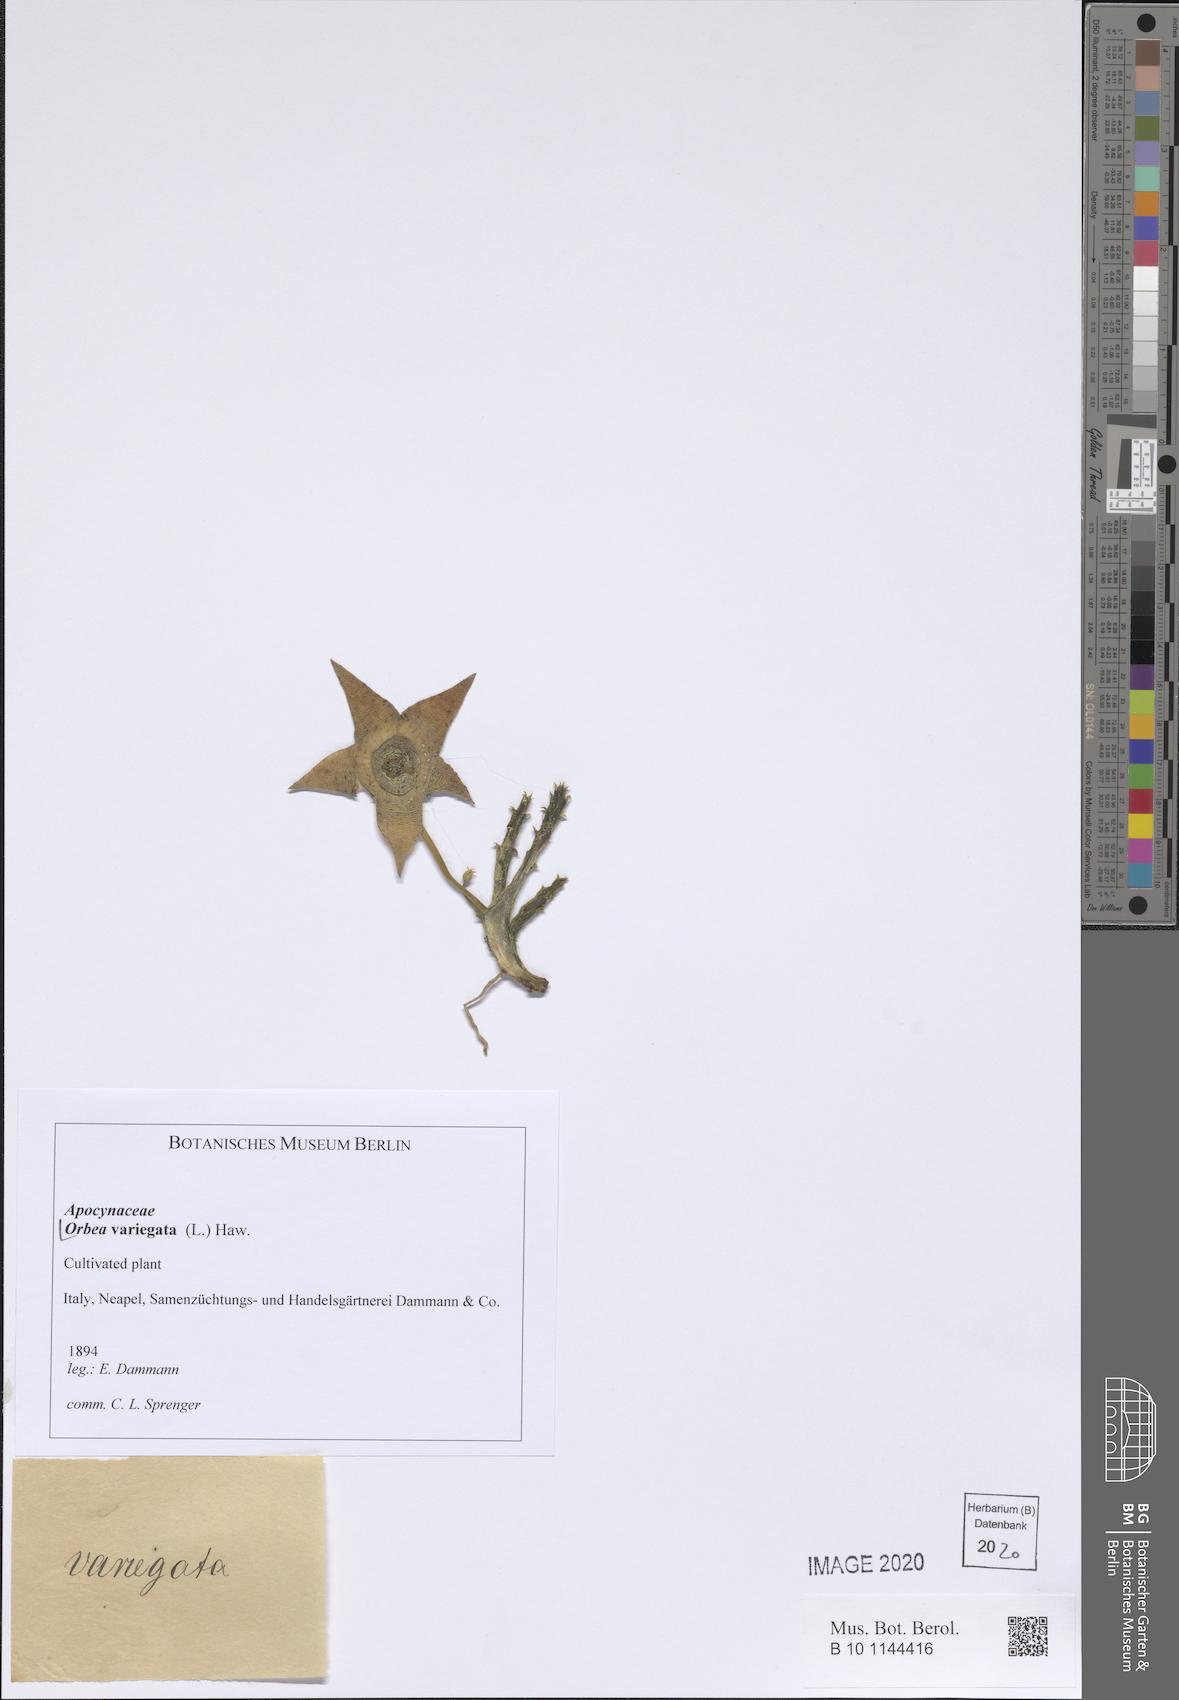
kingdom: Plantae
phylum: Tracheophyta
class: Magnoliopsida
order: Gentianales
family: Apocynaceae
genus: Ceropegia
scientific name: Ceropegia mixta
